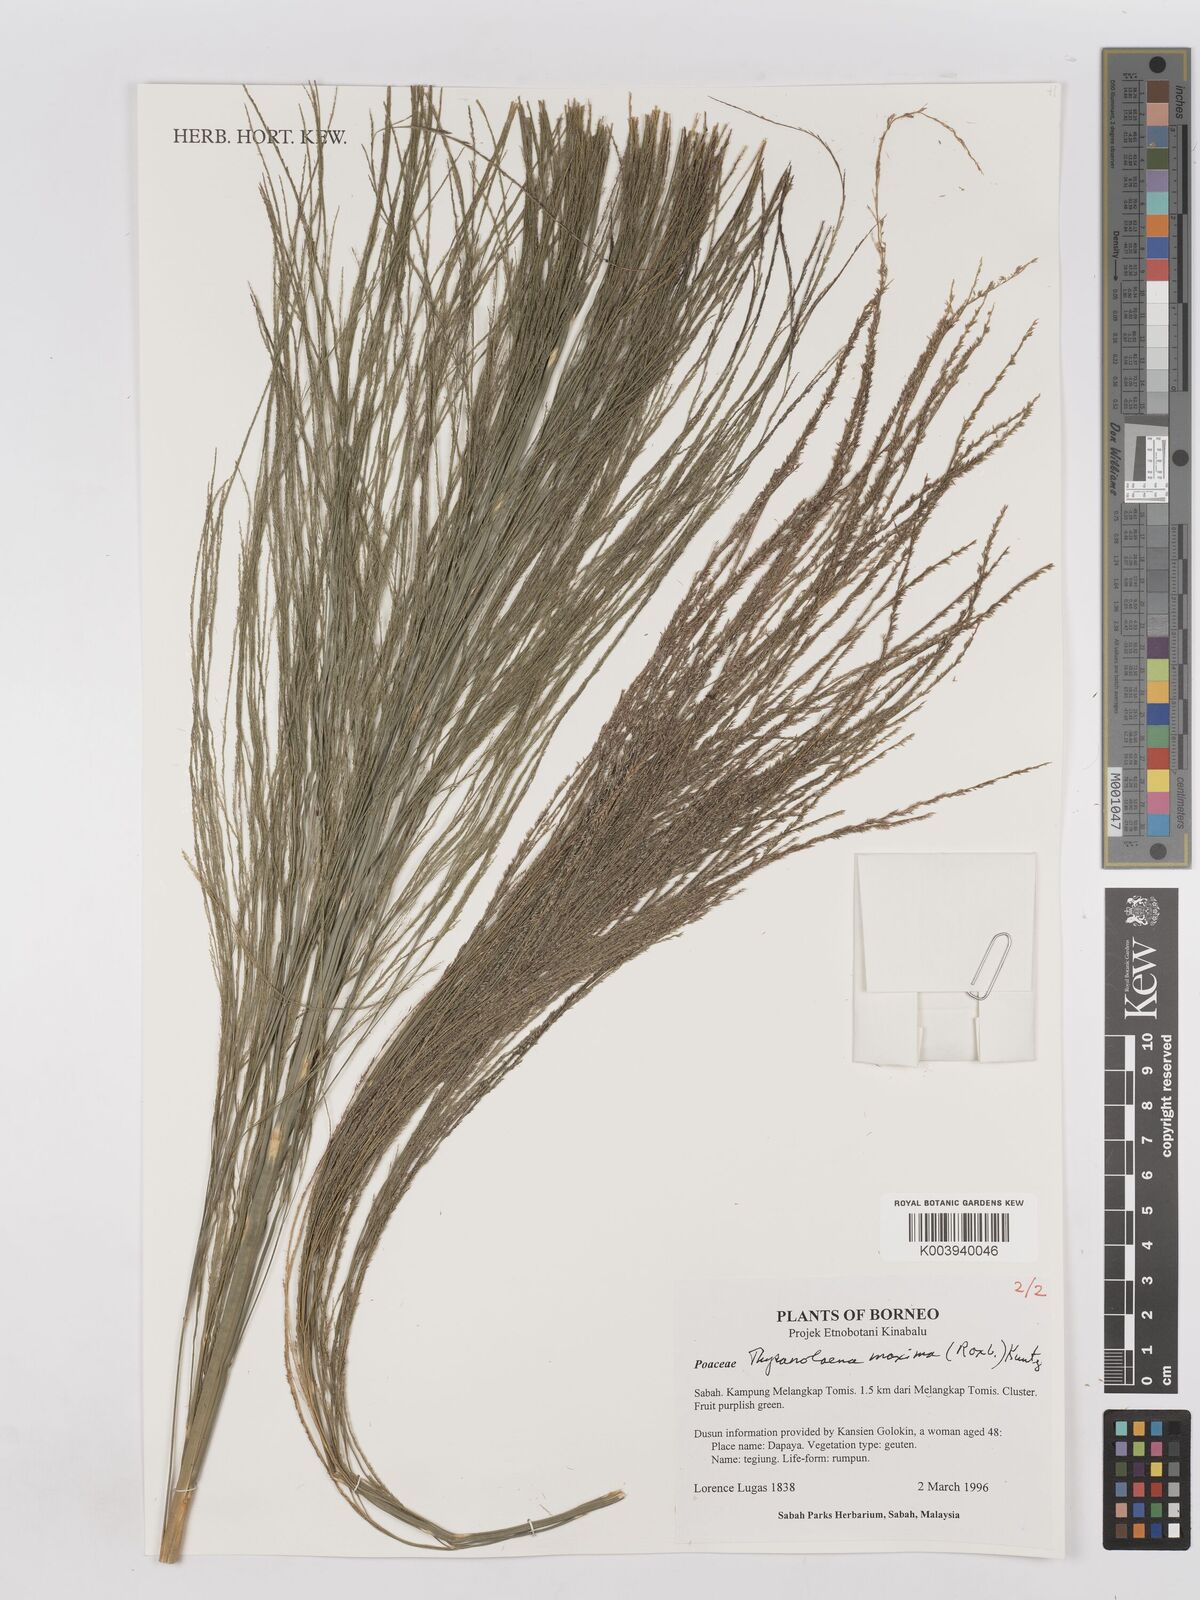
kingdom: Plantae
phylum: Tracheophyta
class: Liliopsida
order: Poales
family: Poaceae
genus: Thysanolaena
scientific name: Thysanolaena latifolia
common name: Tiger grass
